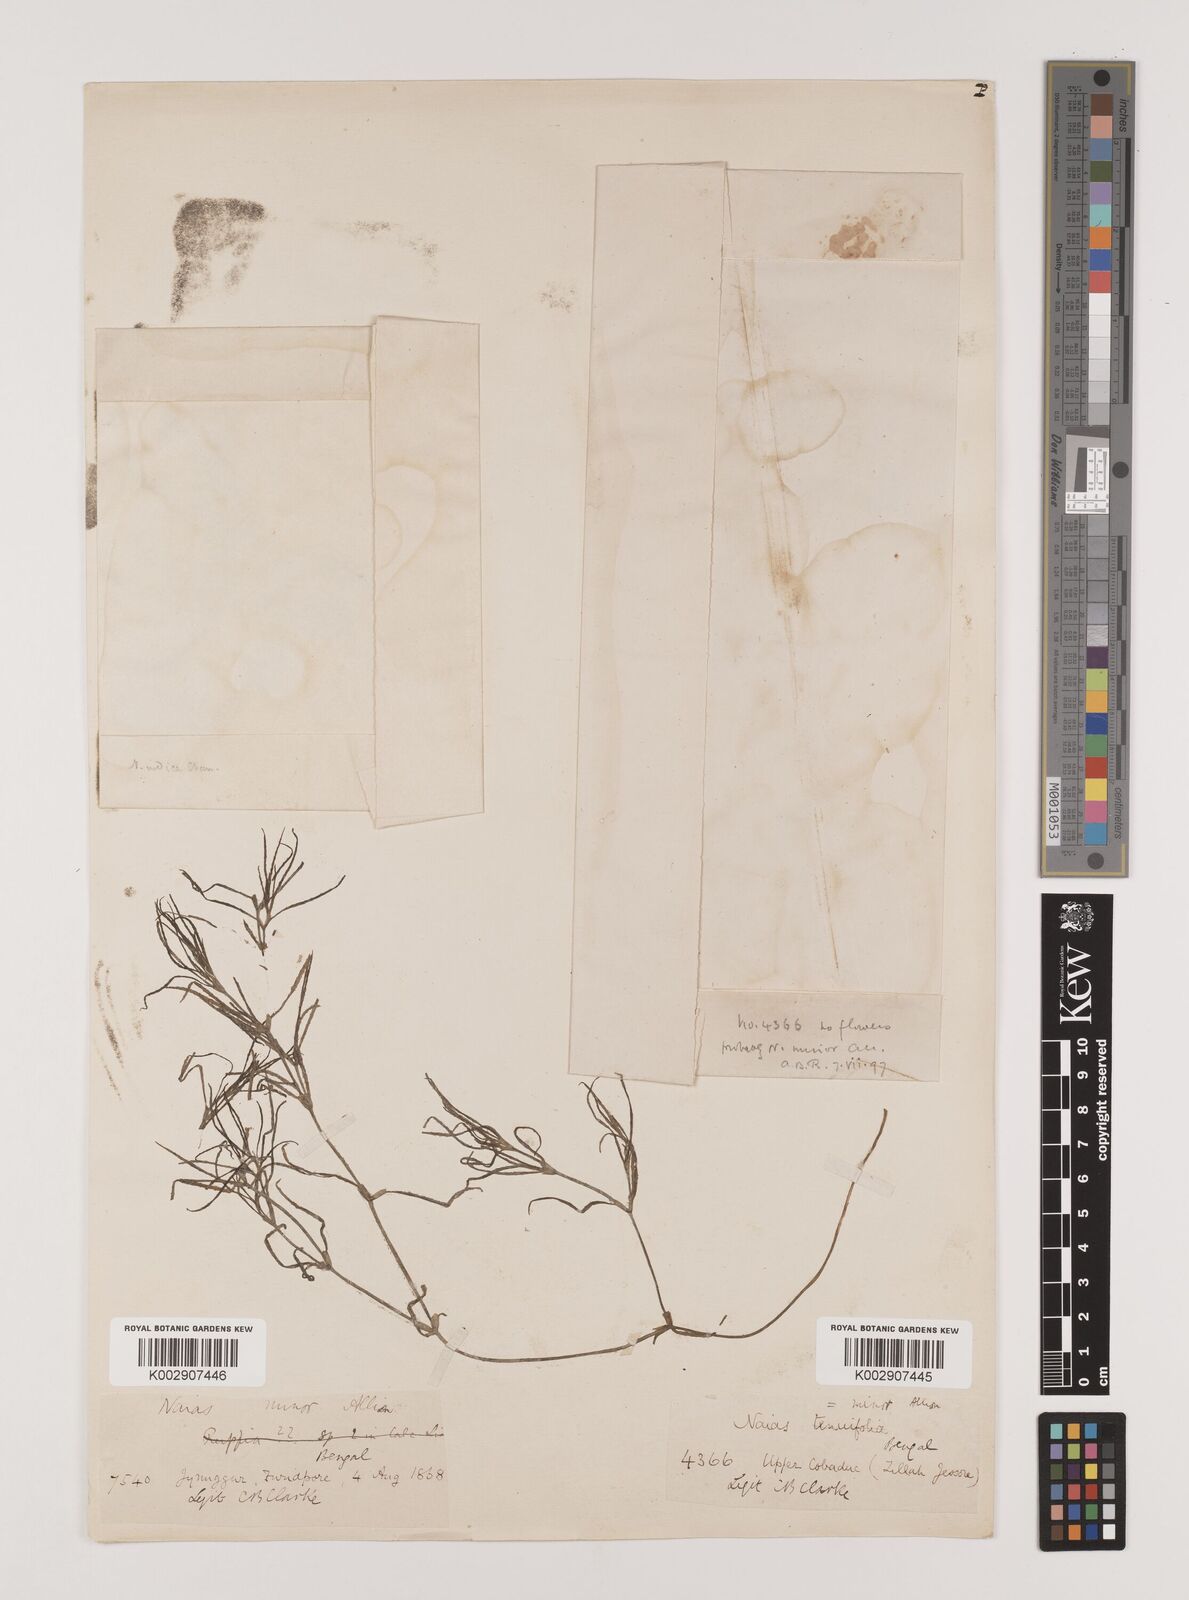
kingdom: Plantae
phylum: Tracheophyta
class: Liliopsida
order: Alismatales
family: Hydrocharitaceae
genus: Najas
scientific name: Najas indica
